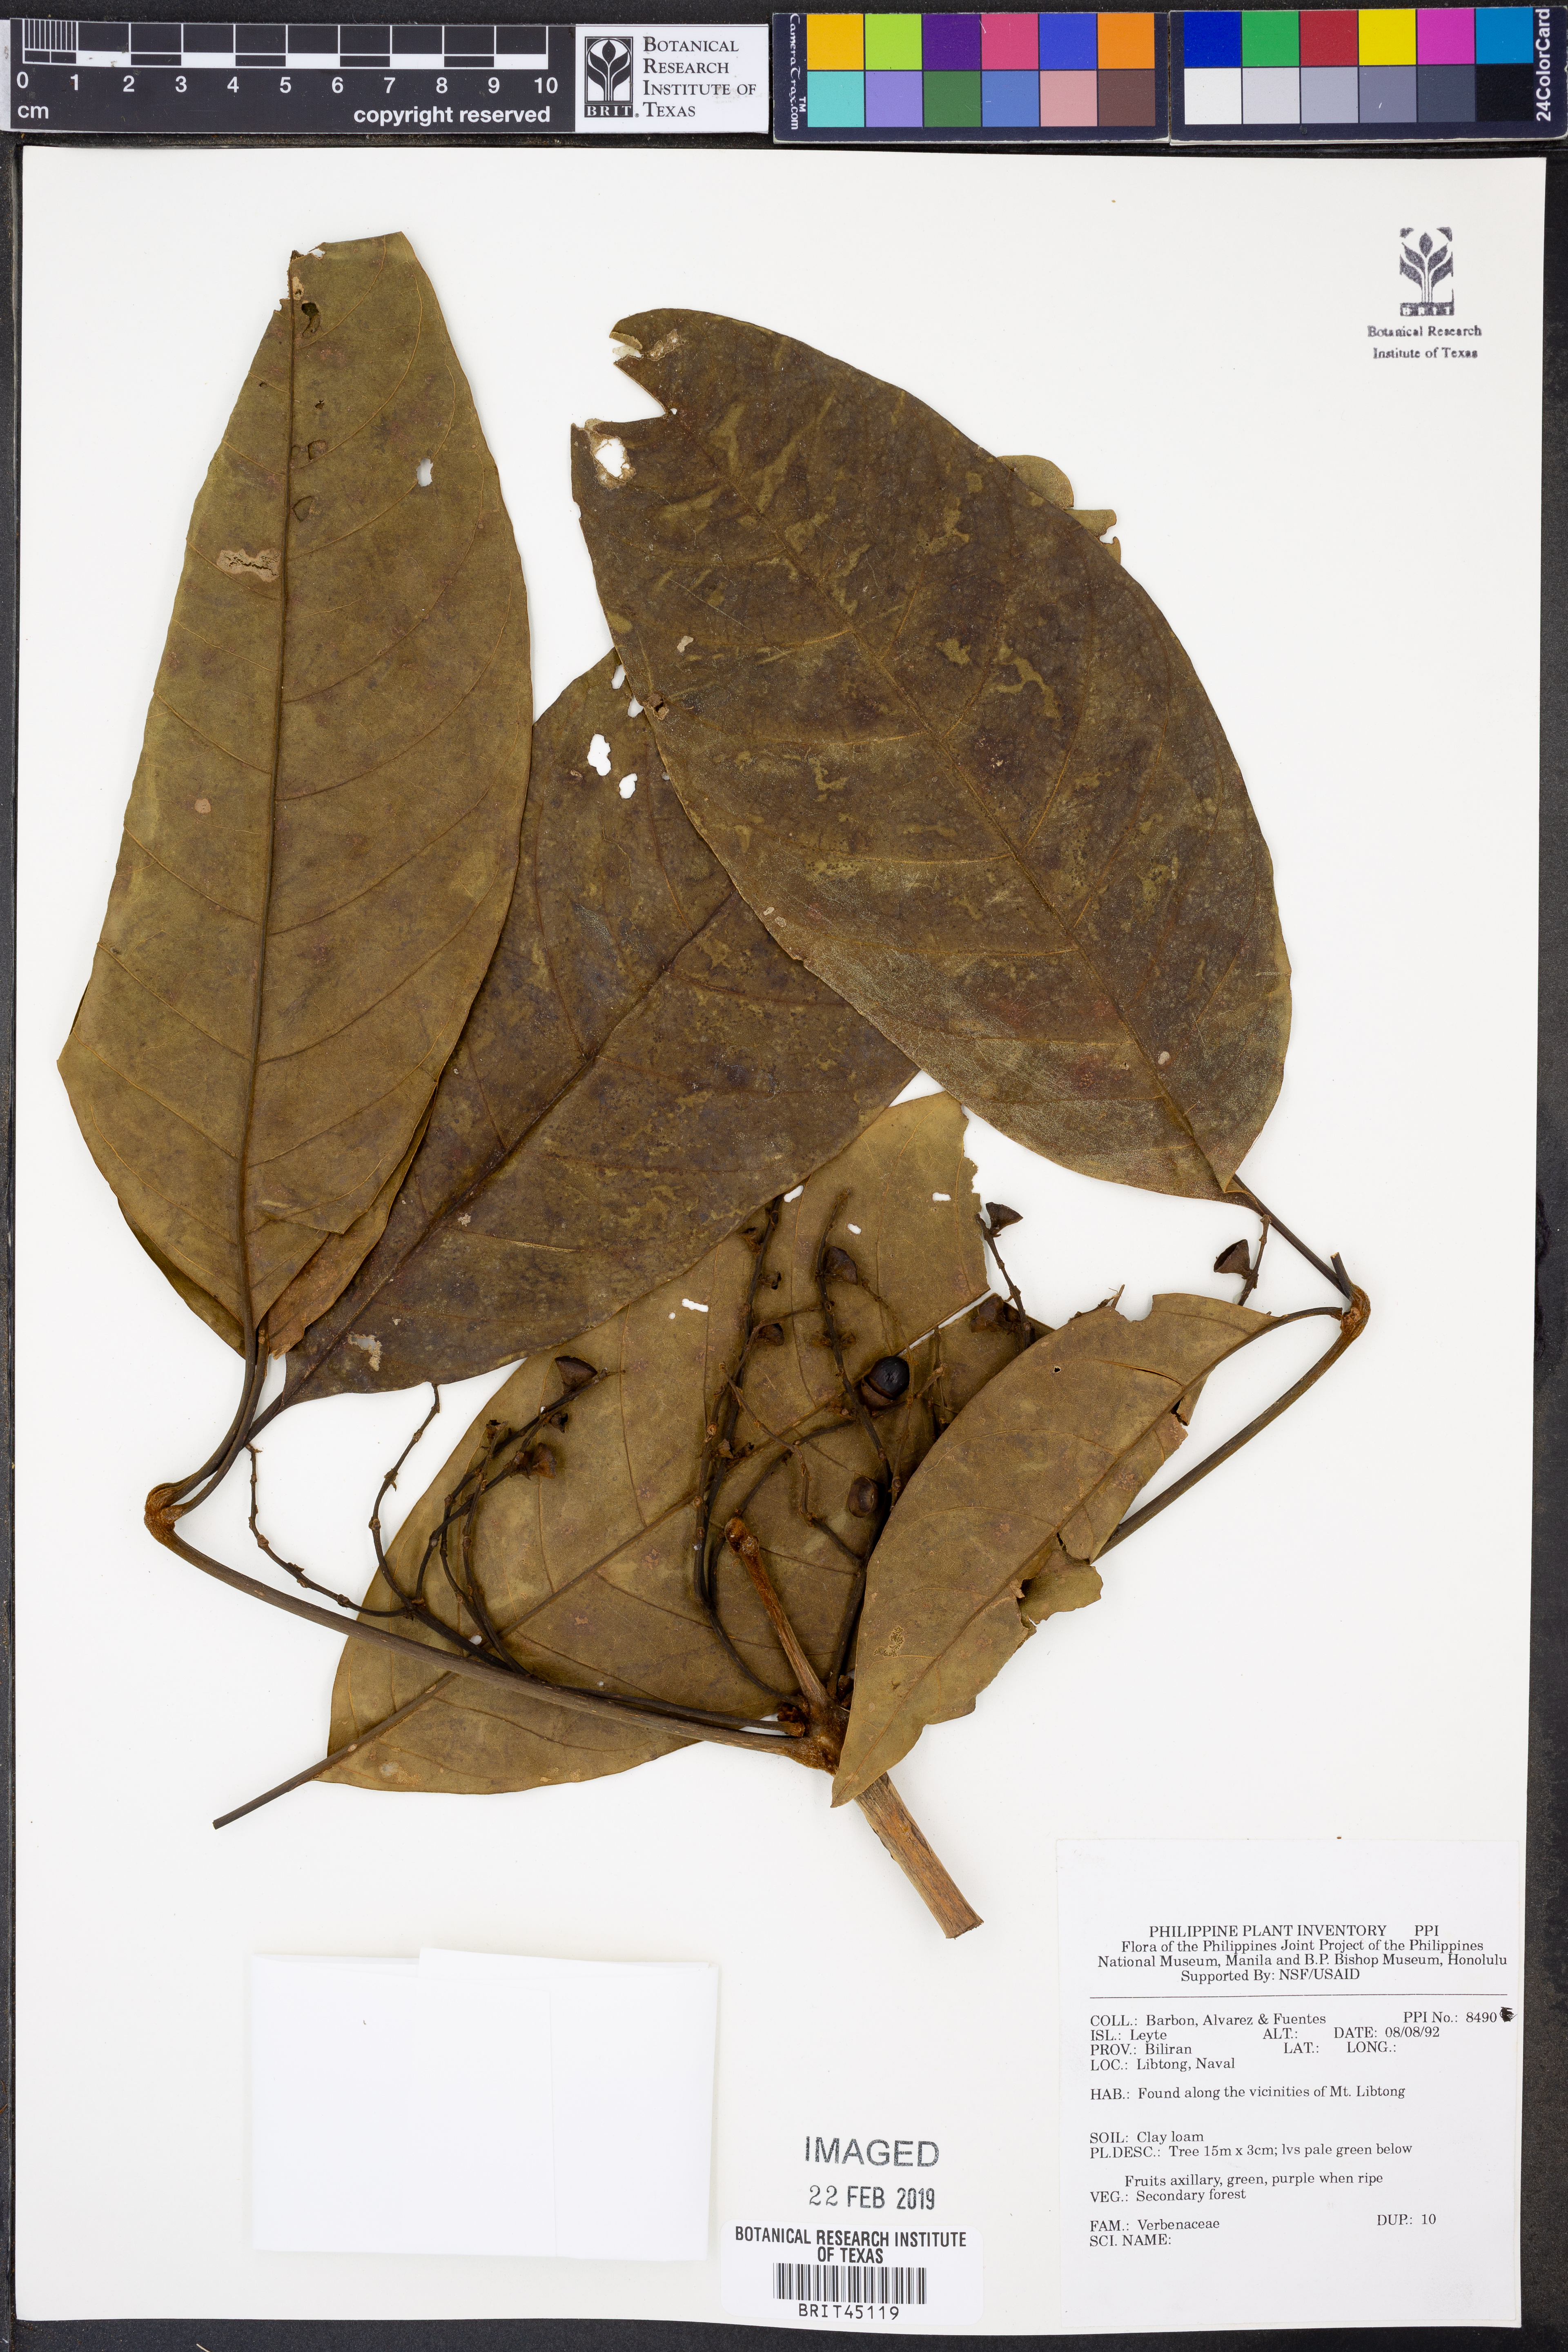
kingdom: Plantae
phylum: Tracheophyta
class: Magnoliopsida
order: Lamiales
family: Verbenaceae
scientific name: Verbenaceae
